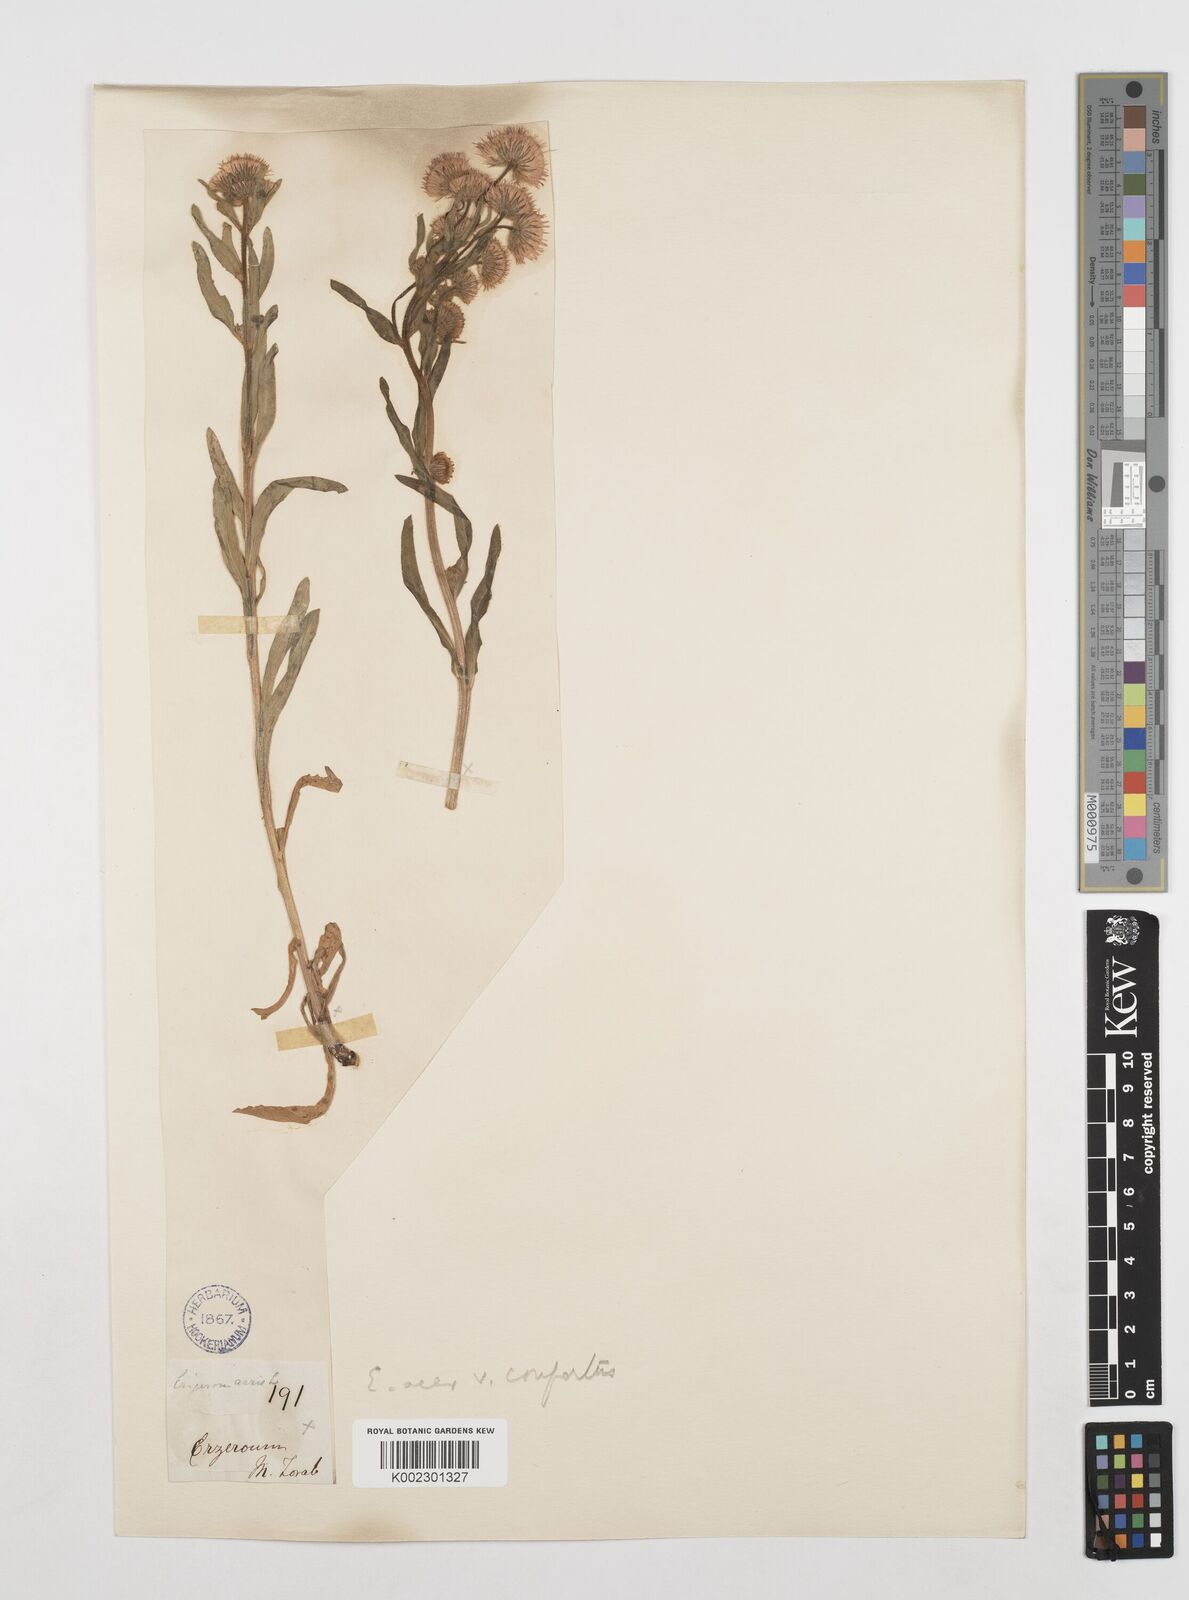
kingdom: Plantae
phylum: Tracheophyta
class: Magnoliopsida
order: Asterales
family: Asteraceae
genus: Erigeron
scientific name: Erigeron acris
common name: Blue fleabane
